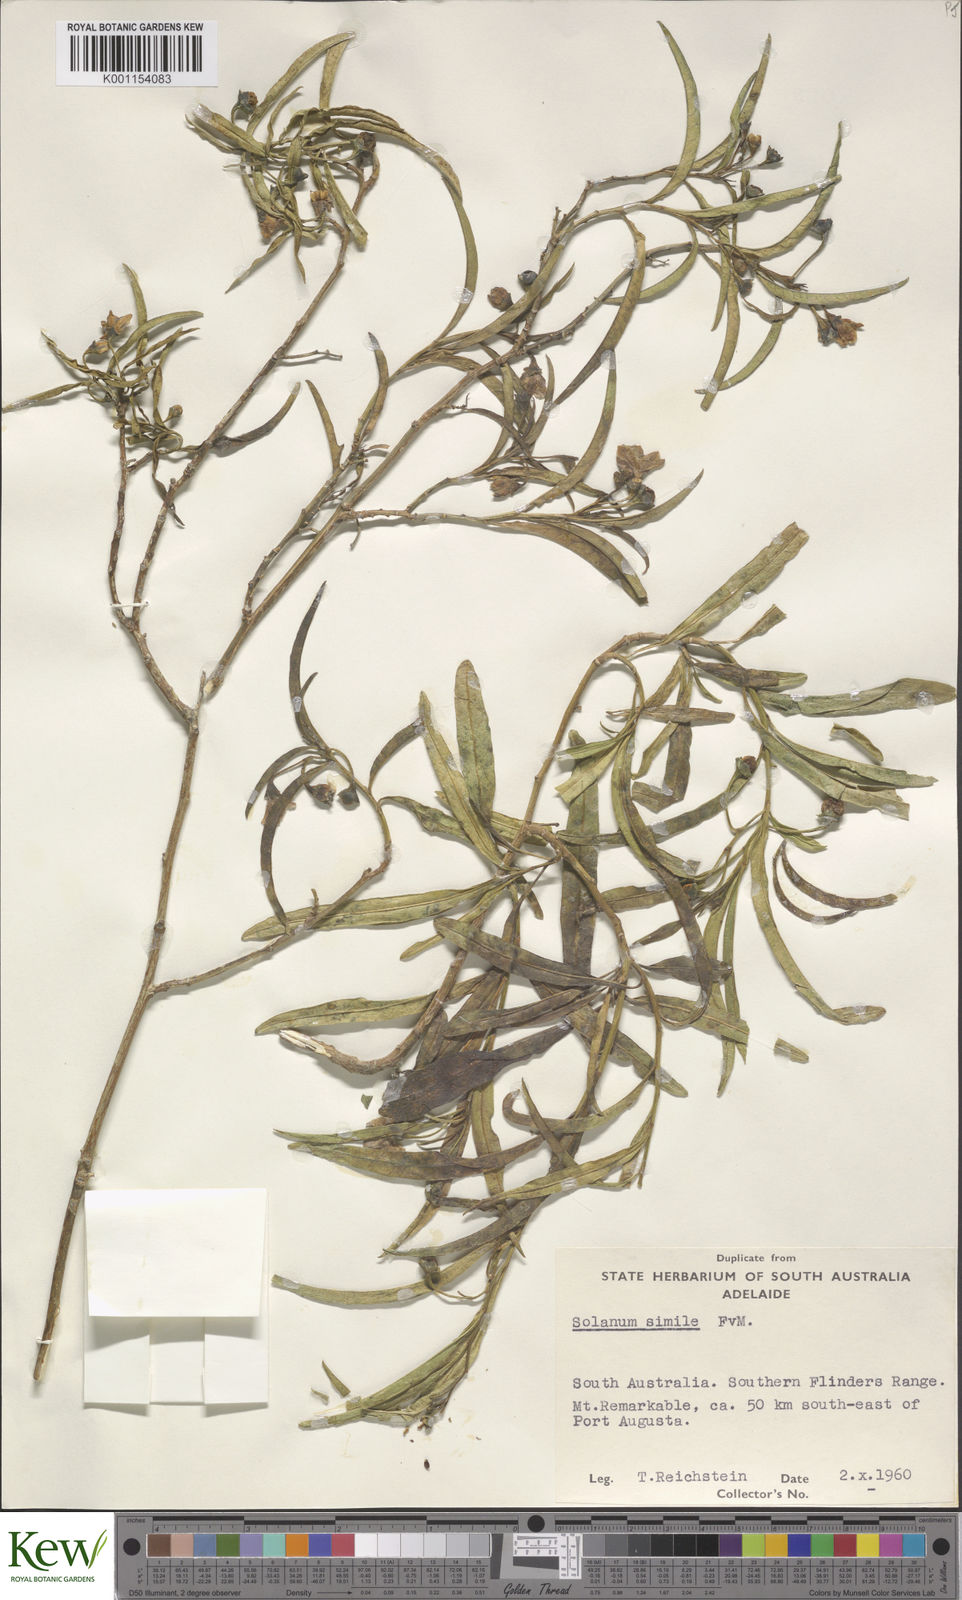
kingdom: Plantae
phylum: Tracheophyta
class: Magnoliopsida
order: Solanales
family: Solanaceae
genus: Solanum
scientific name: Solanum simile
